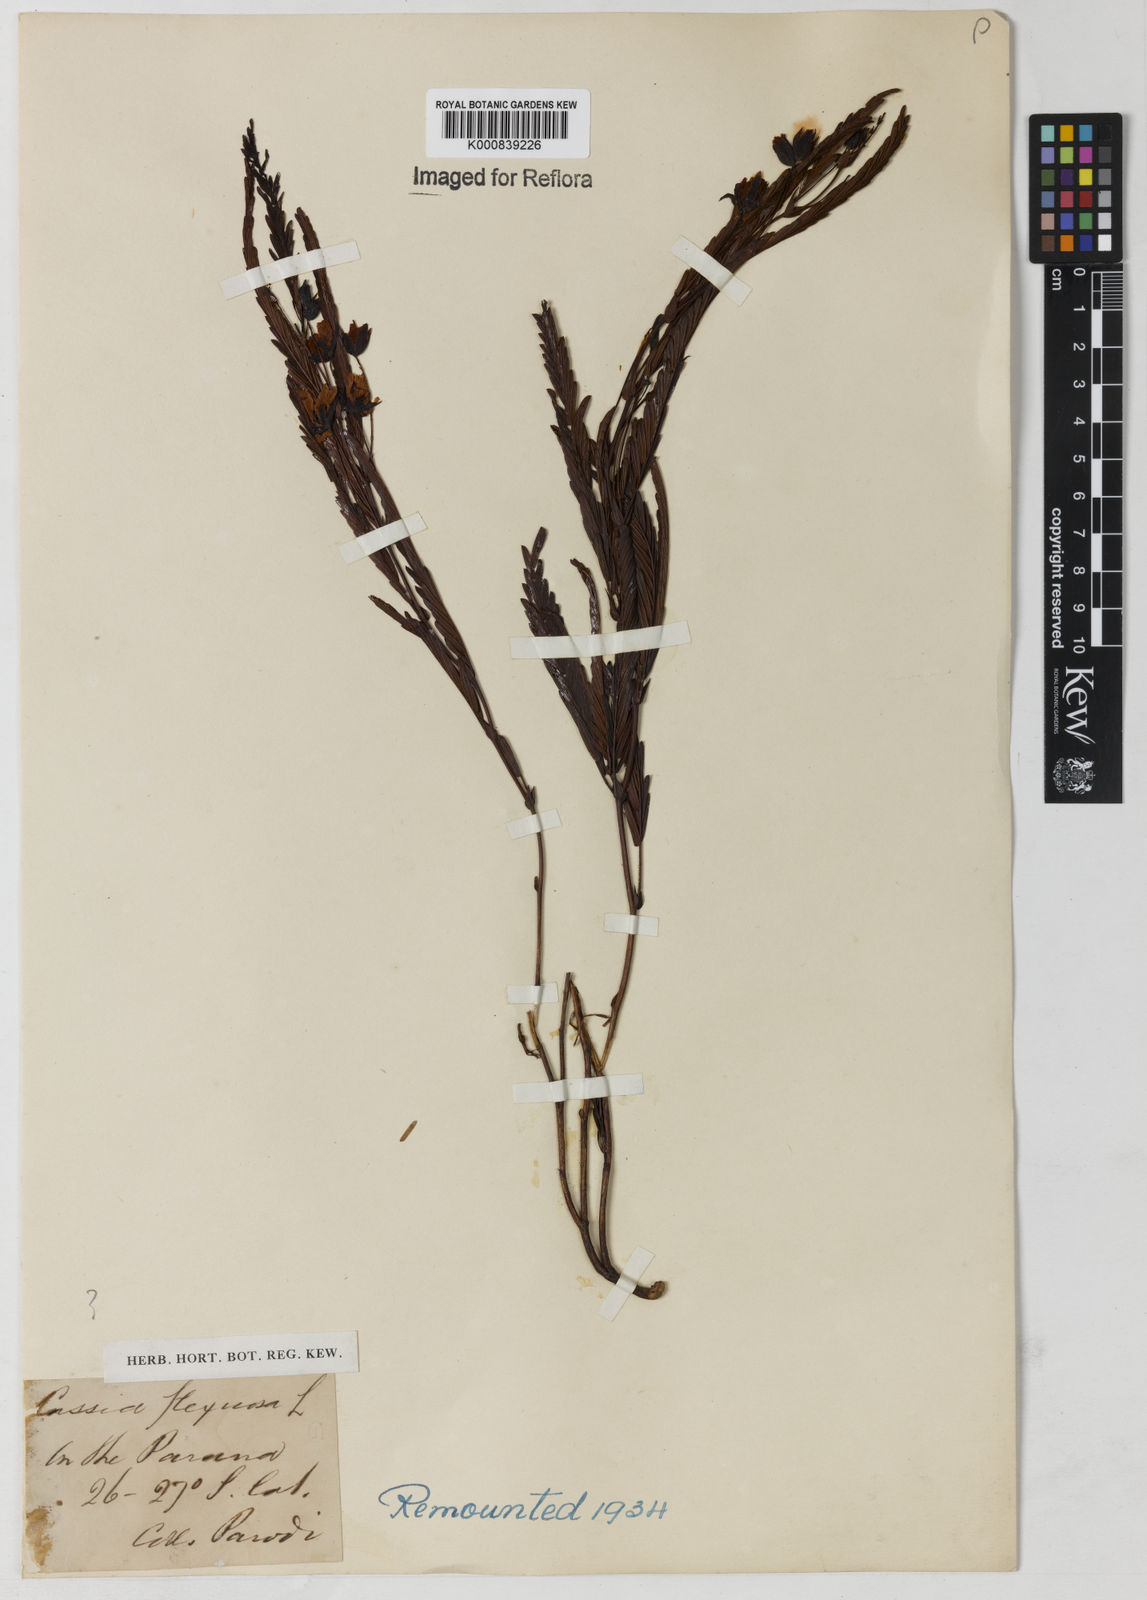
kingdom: Plantae
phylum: Tracheophyta
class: Magnoliopsida
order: Fabales
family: Fabaceae
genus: Chamaecrista
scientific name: Chamaecrista flexuosa
